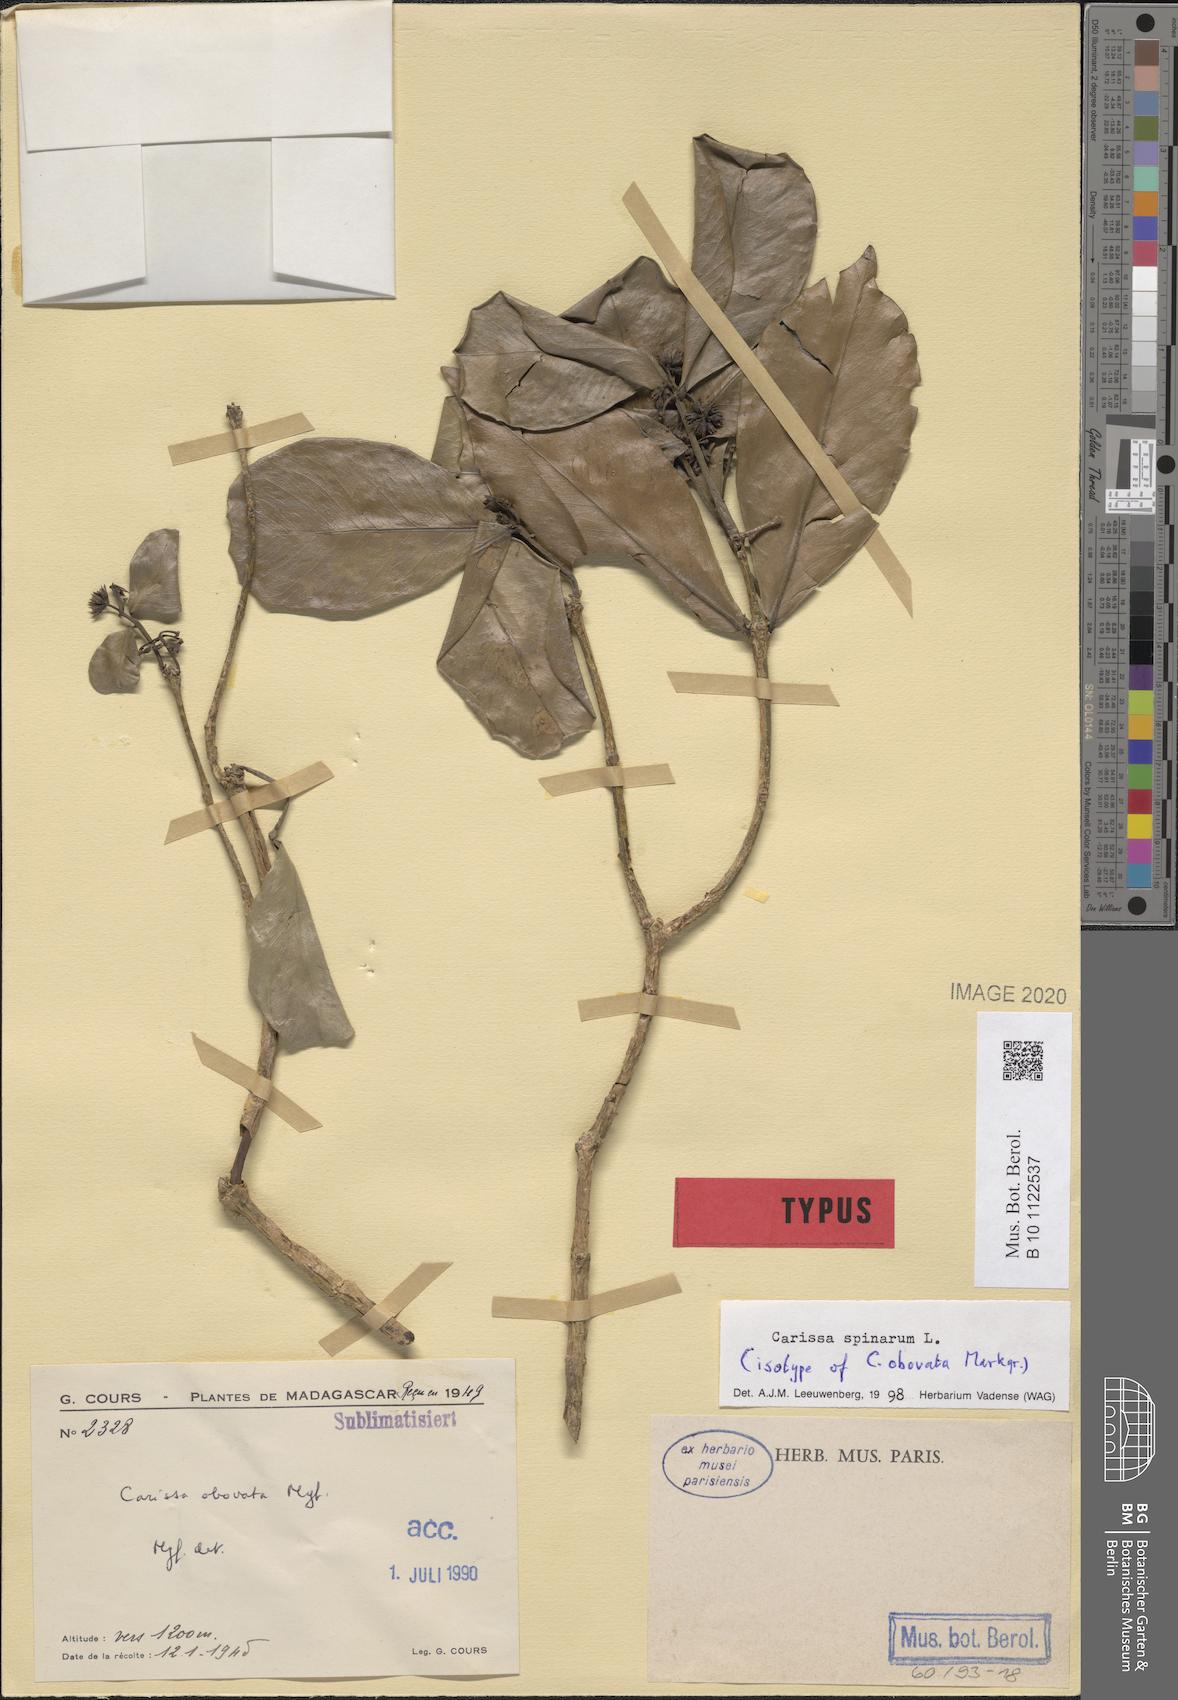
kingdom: Plantae
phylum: Tracheophyta
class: Magnoliopsida
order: Gentianales
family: Apocynaceae
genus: Carissa
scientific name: Carissa spinarum
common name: Egyptian carissa
